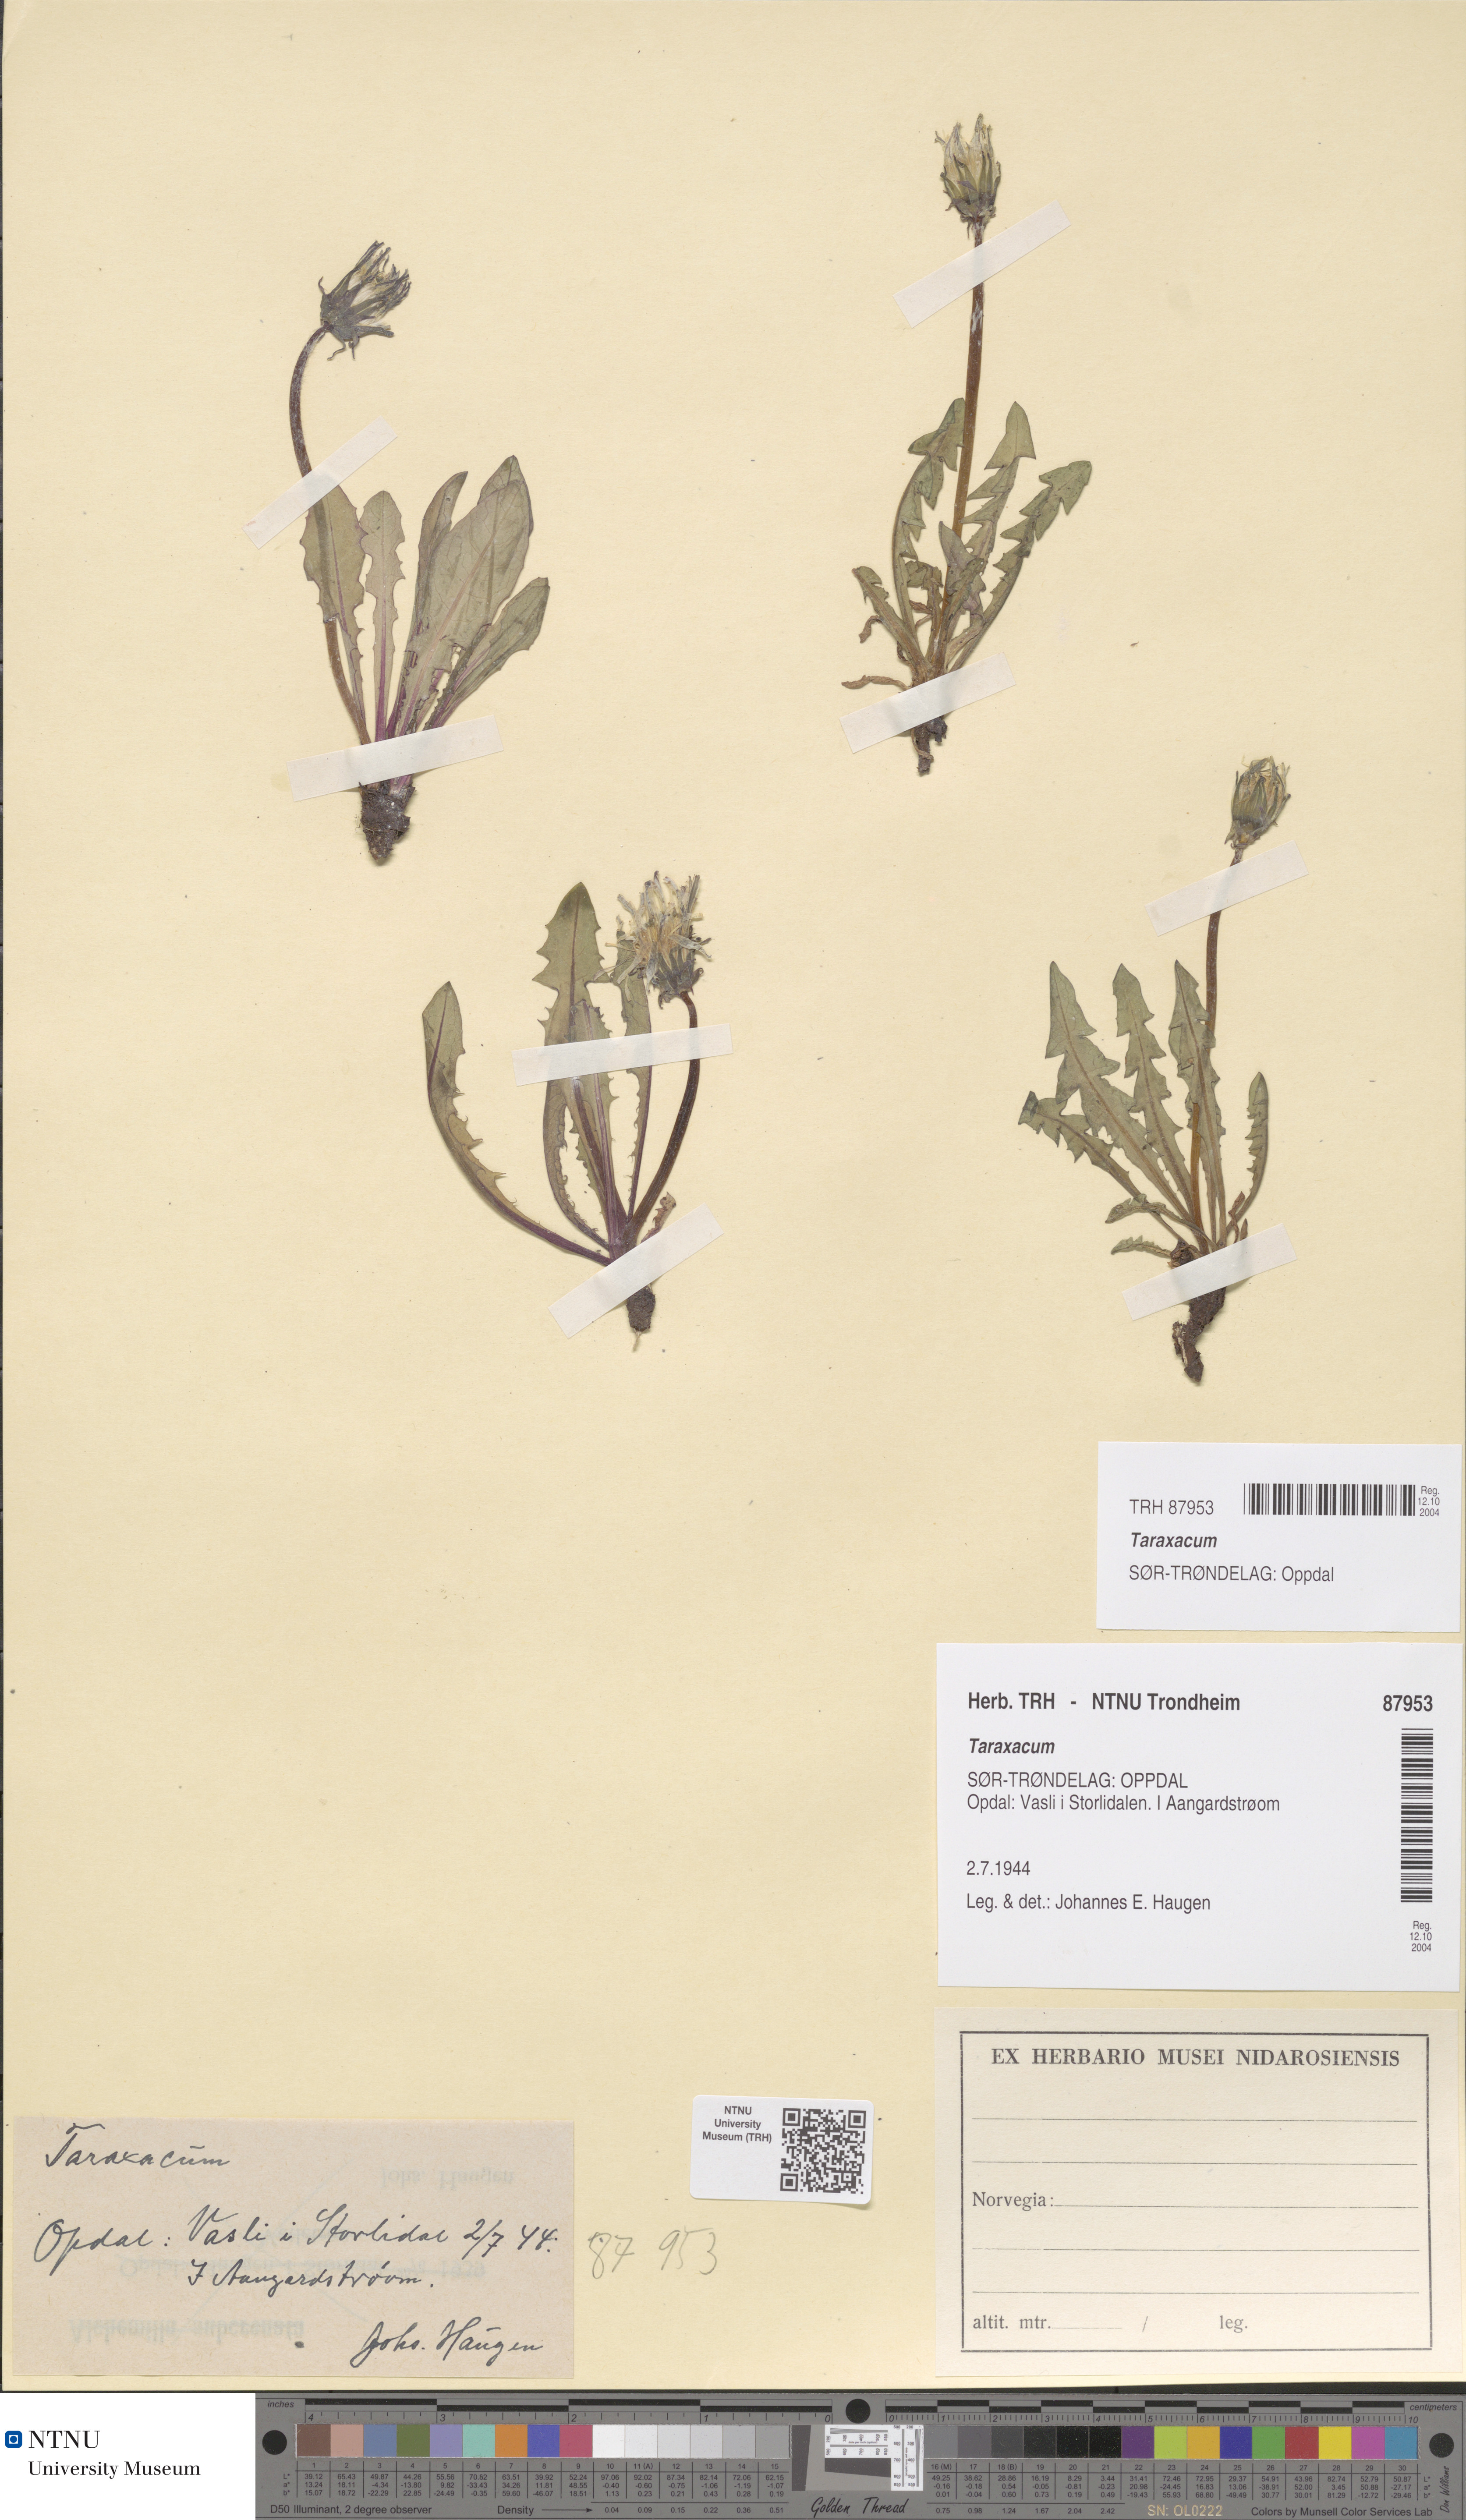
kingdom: Plantae
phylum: Tracheophyta
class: Magnoliopsida
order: Asterales
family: Asteraceae
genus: Taraxacum
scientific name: Taraxacum
